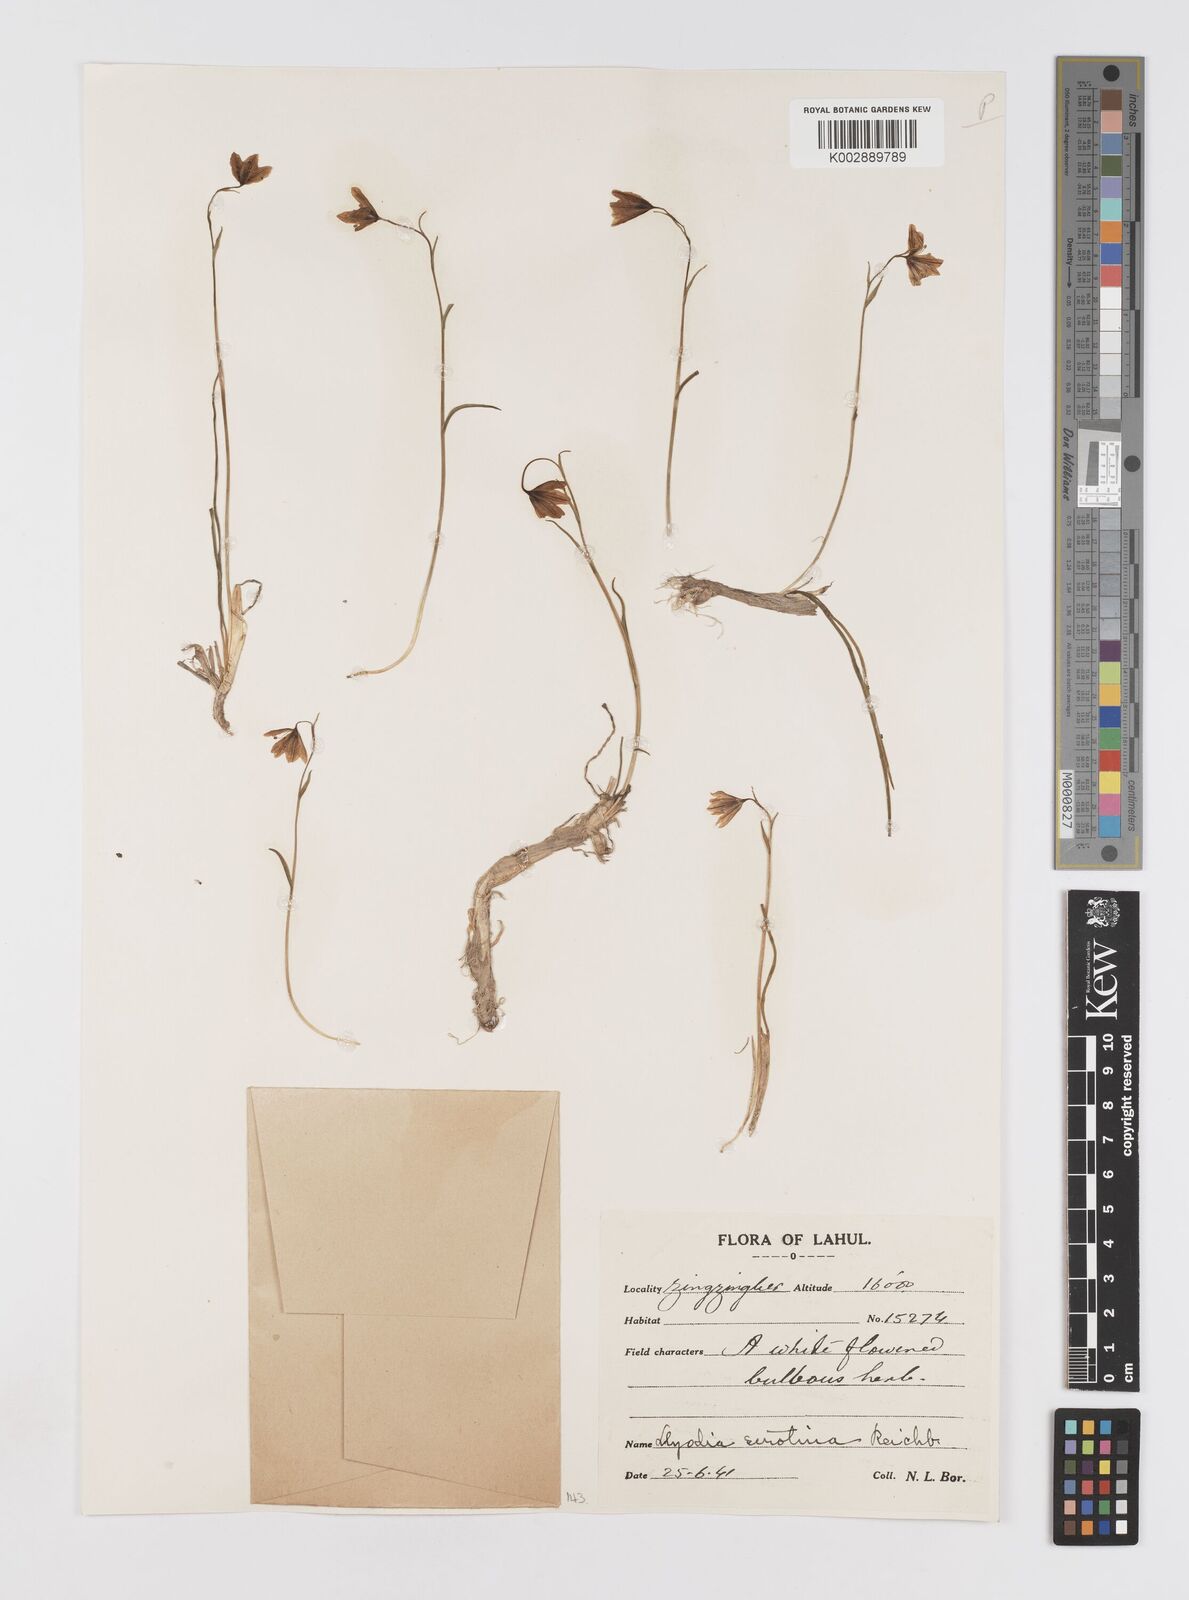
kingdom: Plantae
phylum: Tracheophyta
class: Liliopsida
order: Liliales
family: Liliaceae
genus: Gagea
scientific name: Gagea serotina
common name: Snowdon lily
